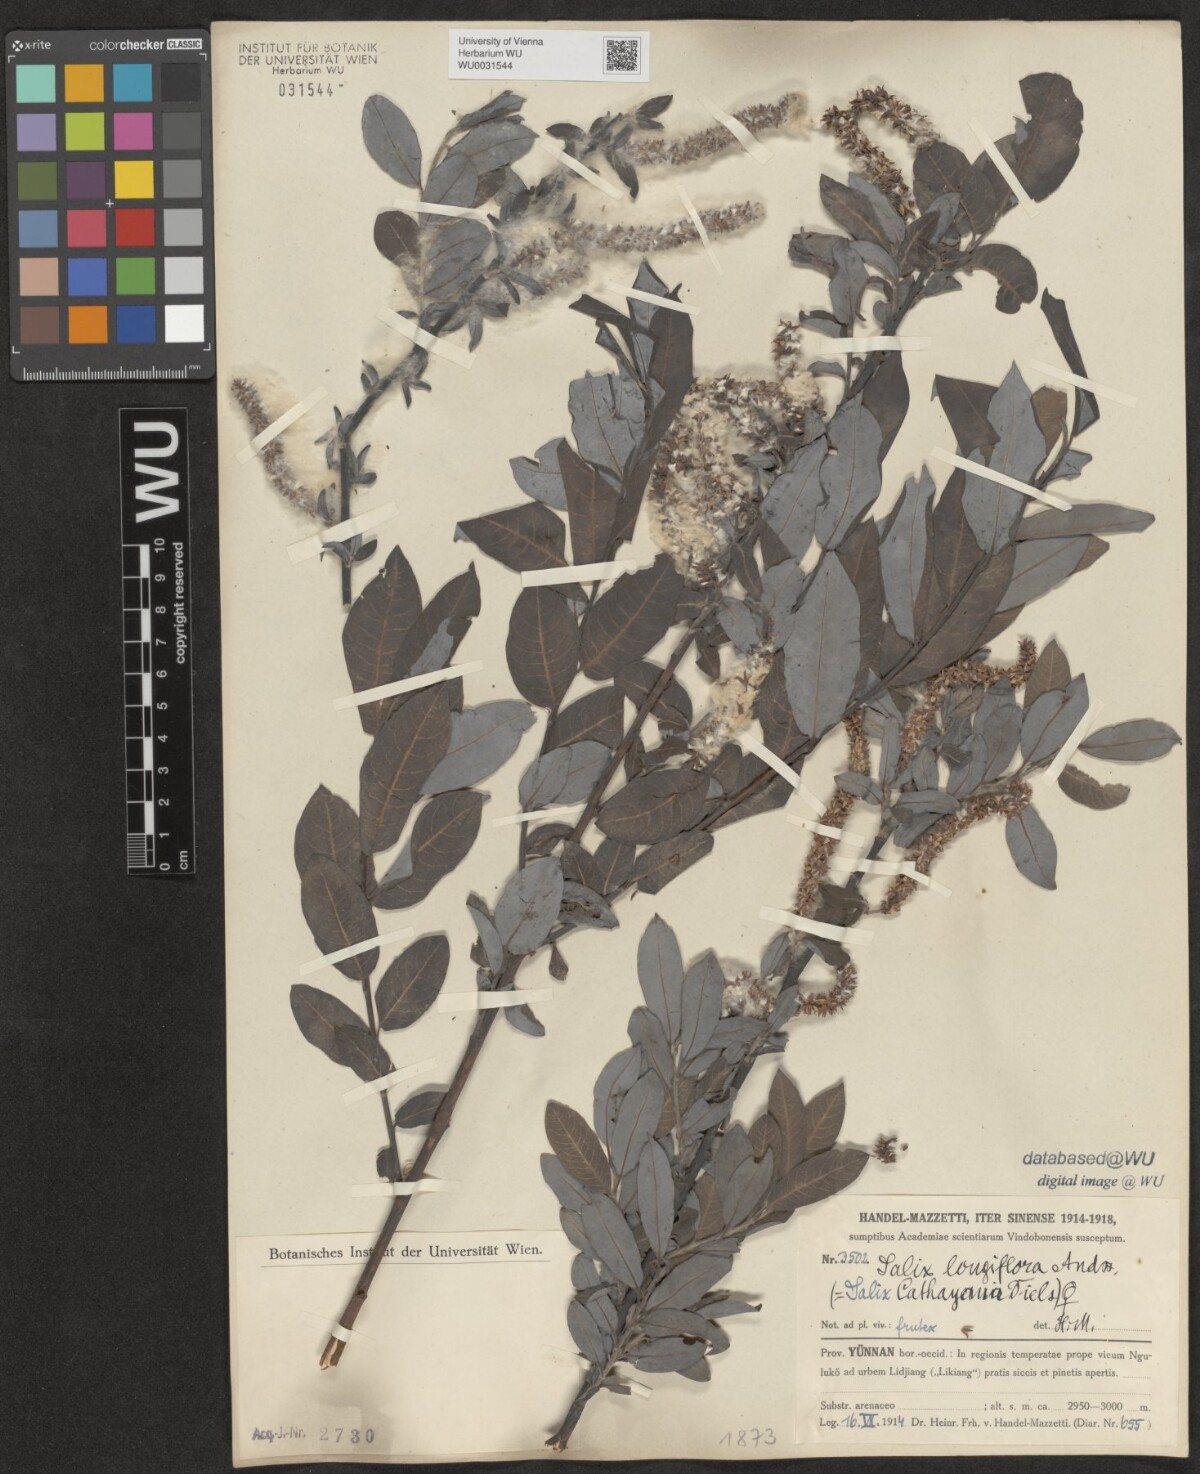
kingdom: Plantae
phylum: Tracheophyta
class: Magnoliopsida
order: Malpighiales
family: Salicaceae
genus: Salix
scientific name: Salix longiflora
